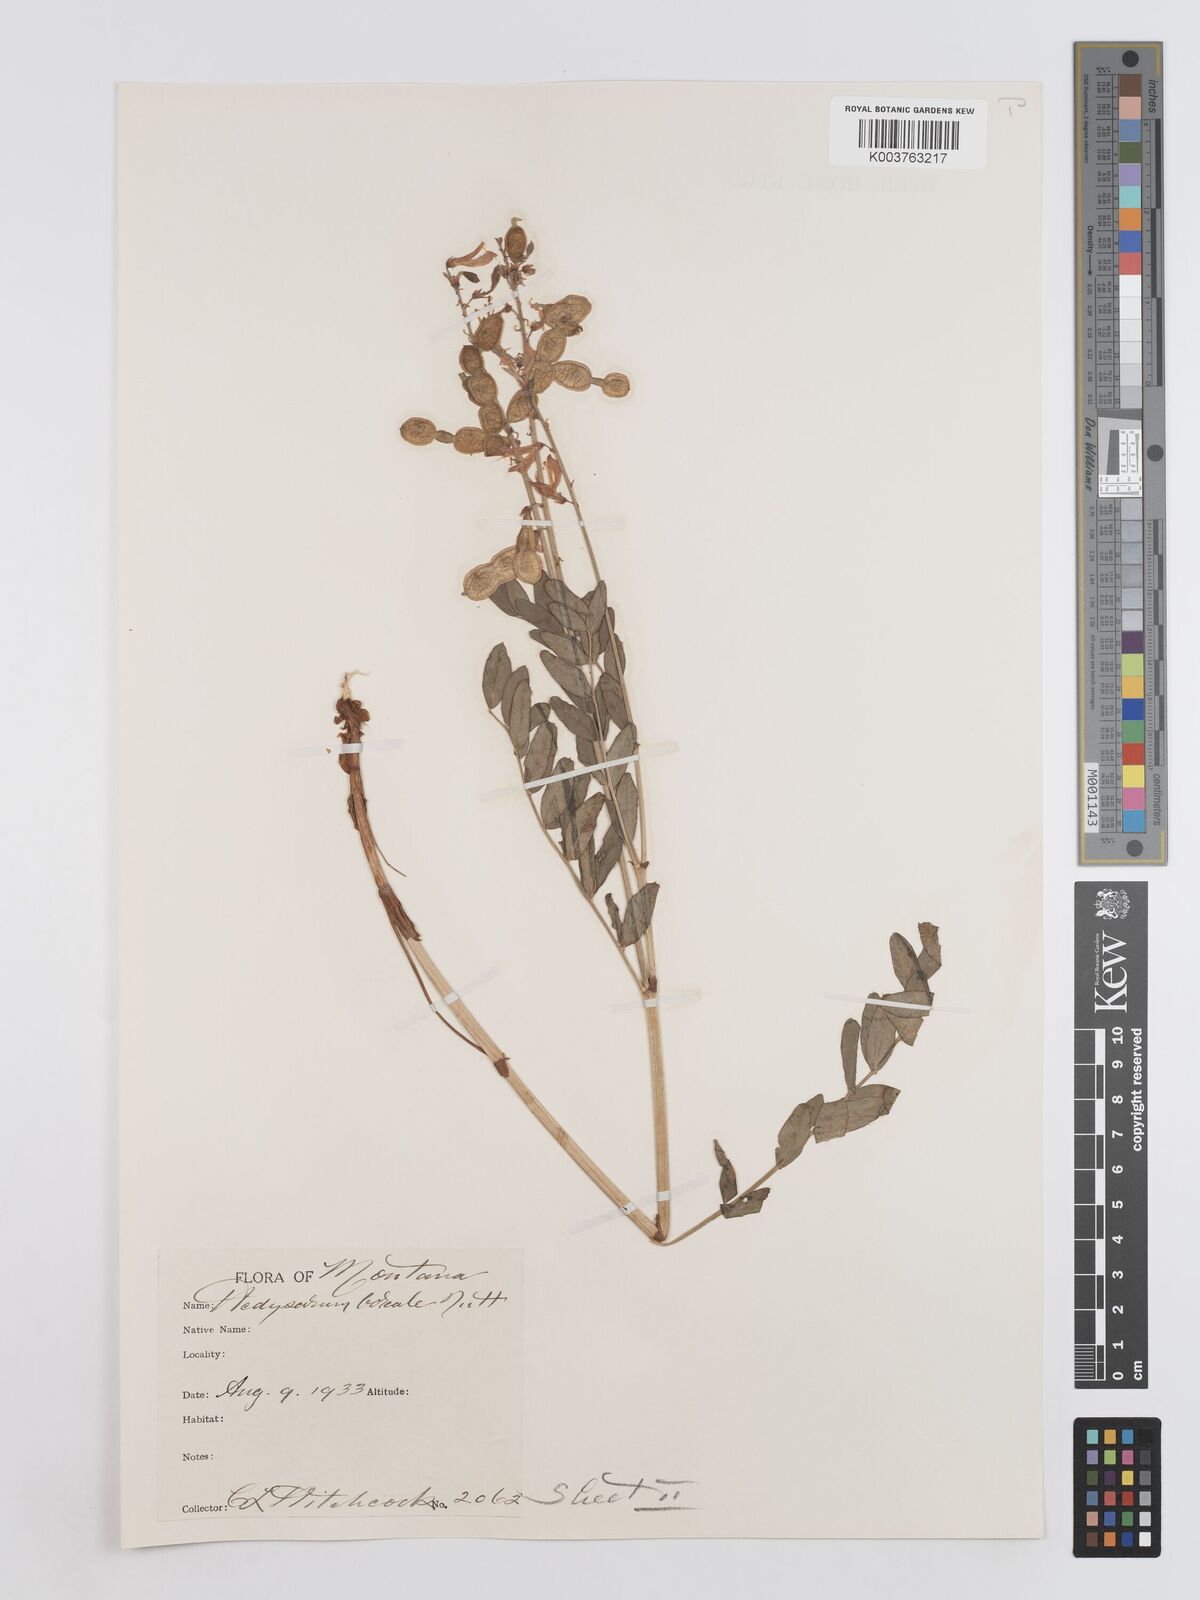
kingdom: Plantae
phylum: Tracheophyta
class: Magnoliopsida
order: Fabales
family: Fabaceae
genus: Hedysarum
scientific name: Hedysarum boreale
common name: Northern sweet-vetch
